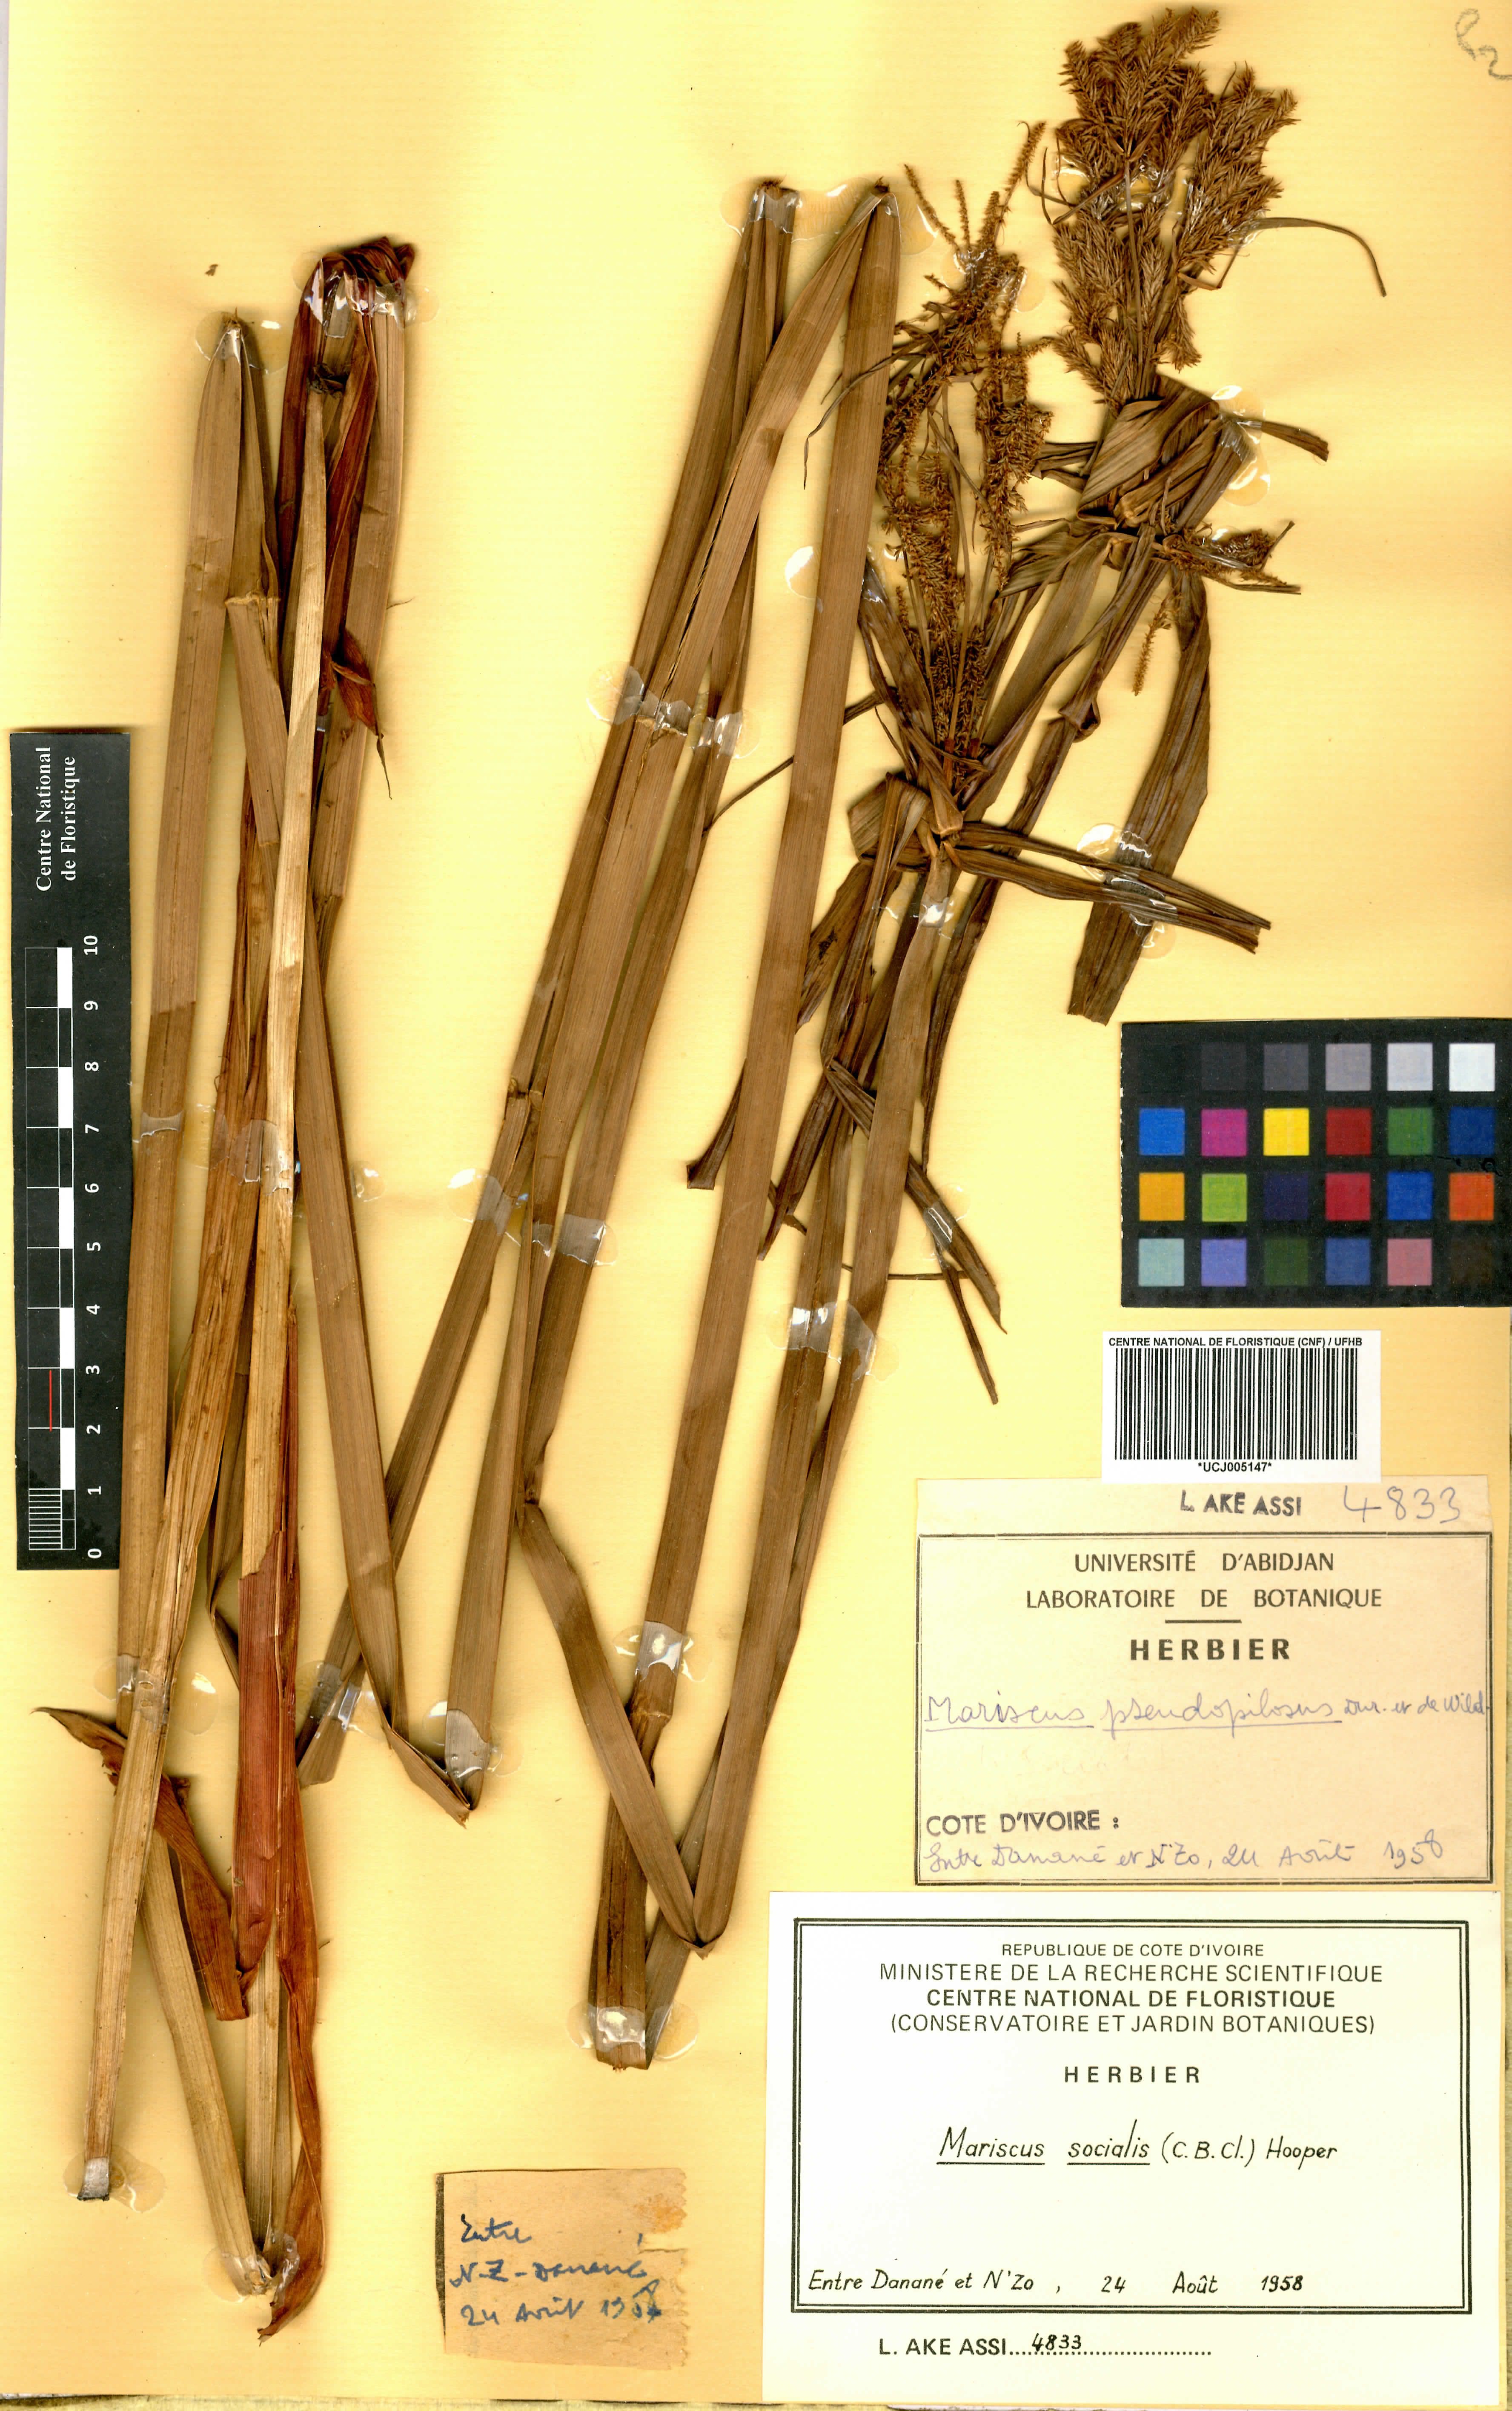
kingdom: Plantae
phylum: Tracheophyta
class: Liliopsida
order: Poales
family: Cyperaceae
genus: Cyperus
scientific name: Cyperus pseudopilosus
